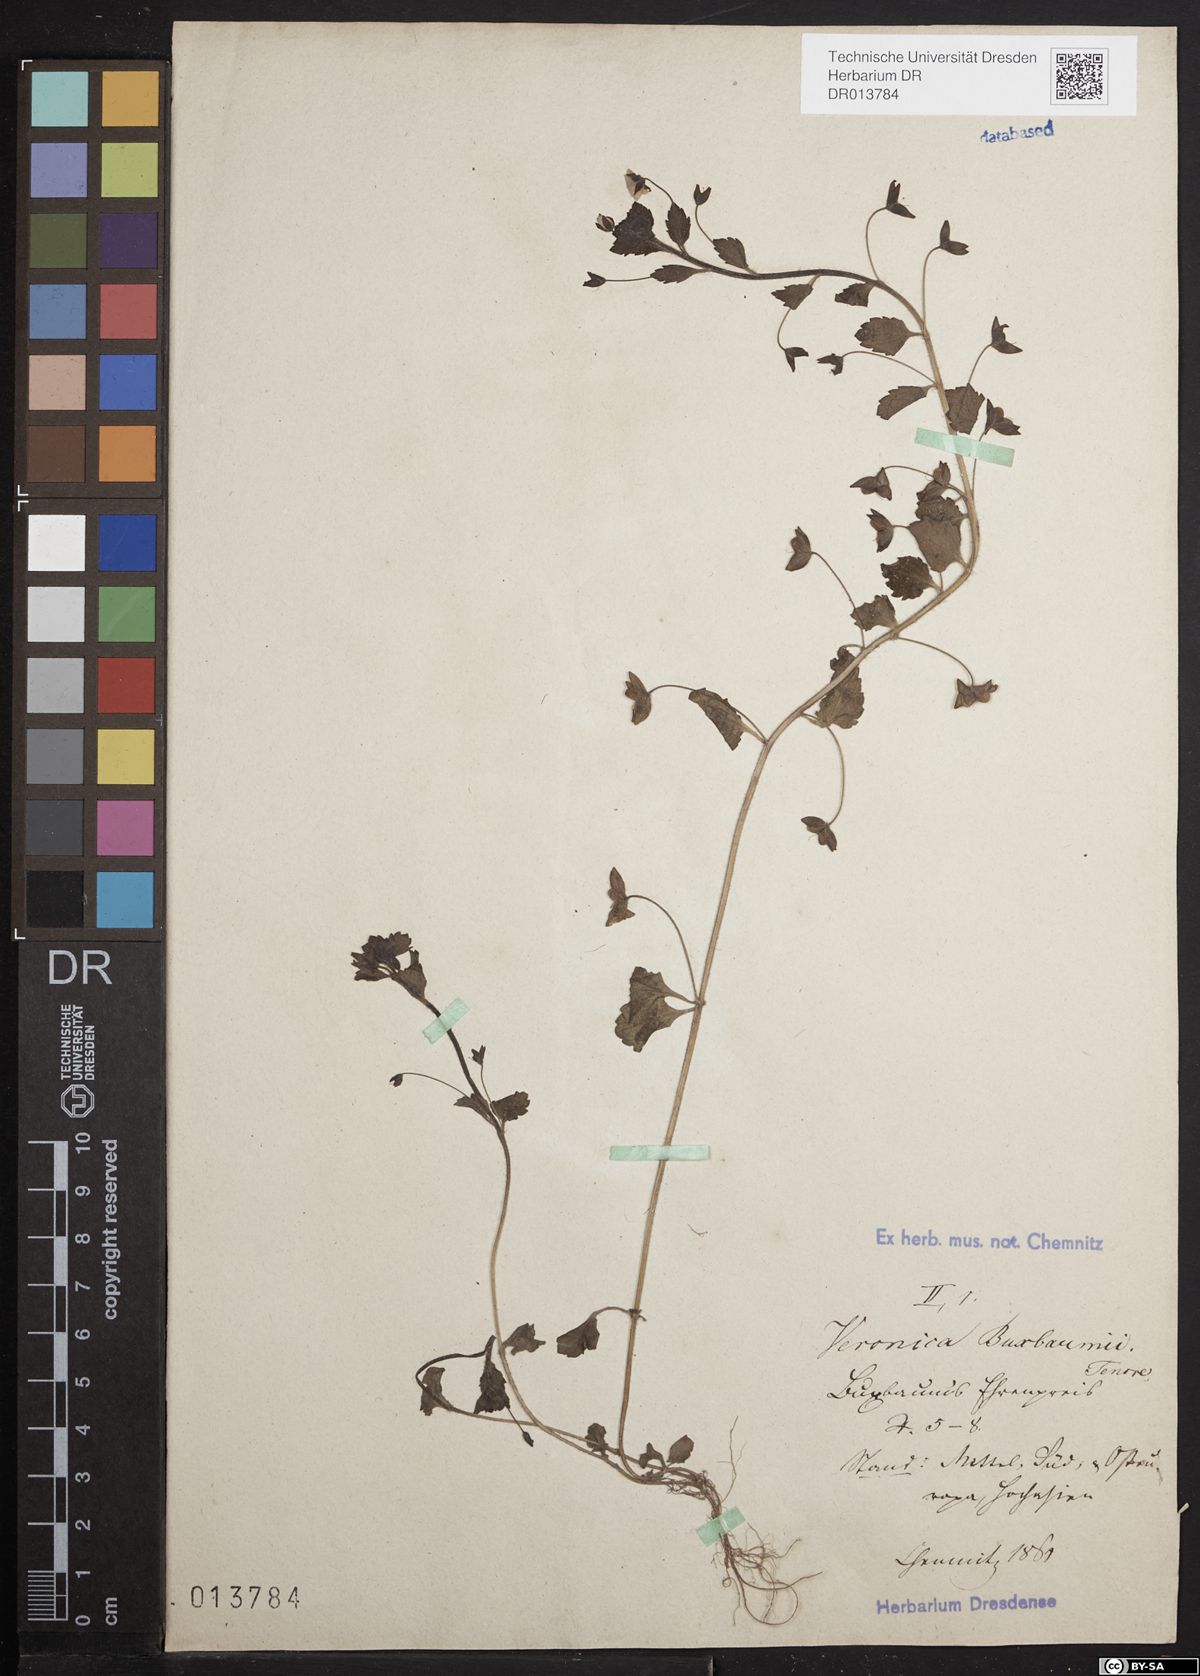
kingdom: Plantae
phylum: Tracheophyta
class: Magnoliopsida
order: Lamiales
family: Plantaginaceae
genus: Veronica
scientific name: Veronica persica
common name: Common field-speedwell
